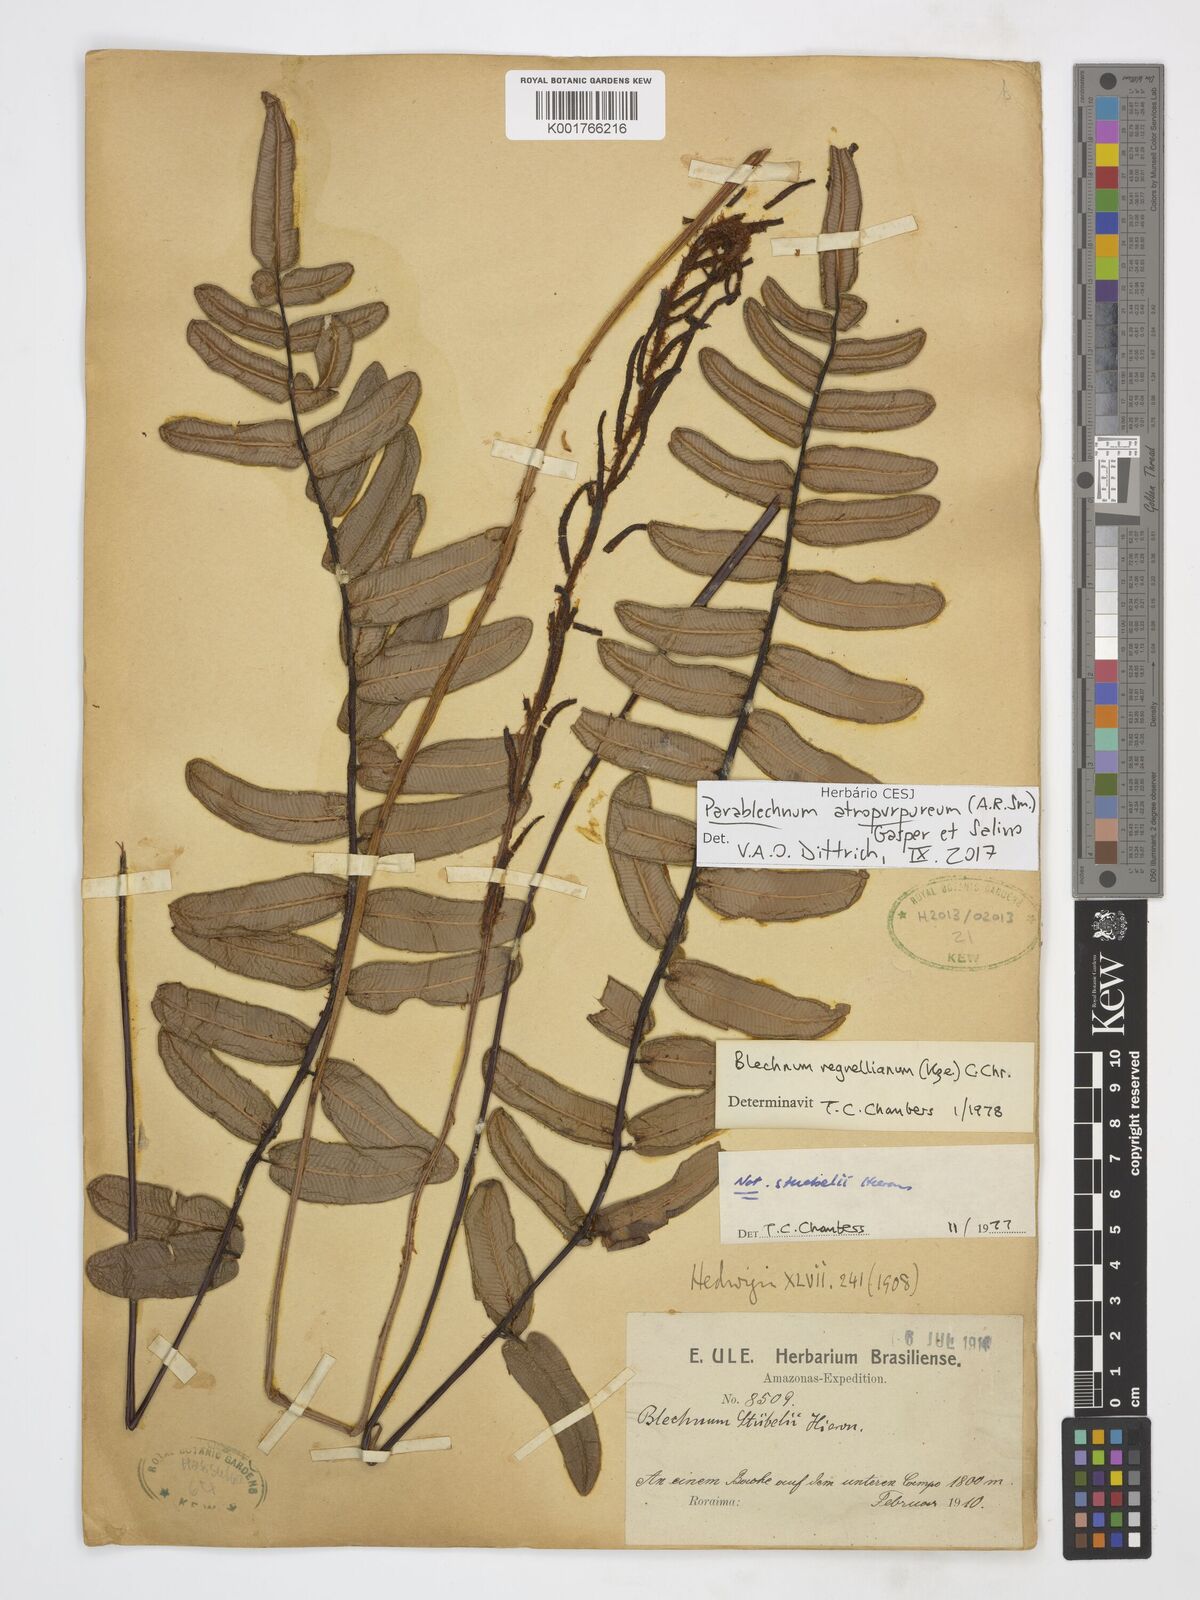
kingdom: Plantae
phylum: Tracheophyta
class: Polypodiopsida
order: Polypodiales
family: Blechnaceae
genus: Parablechnum
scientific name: Parablechnum atropurpureum
